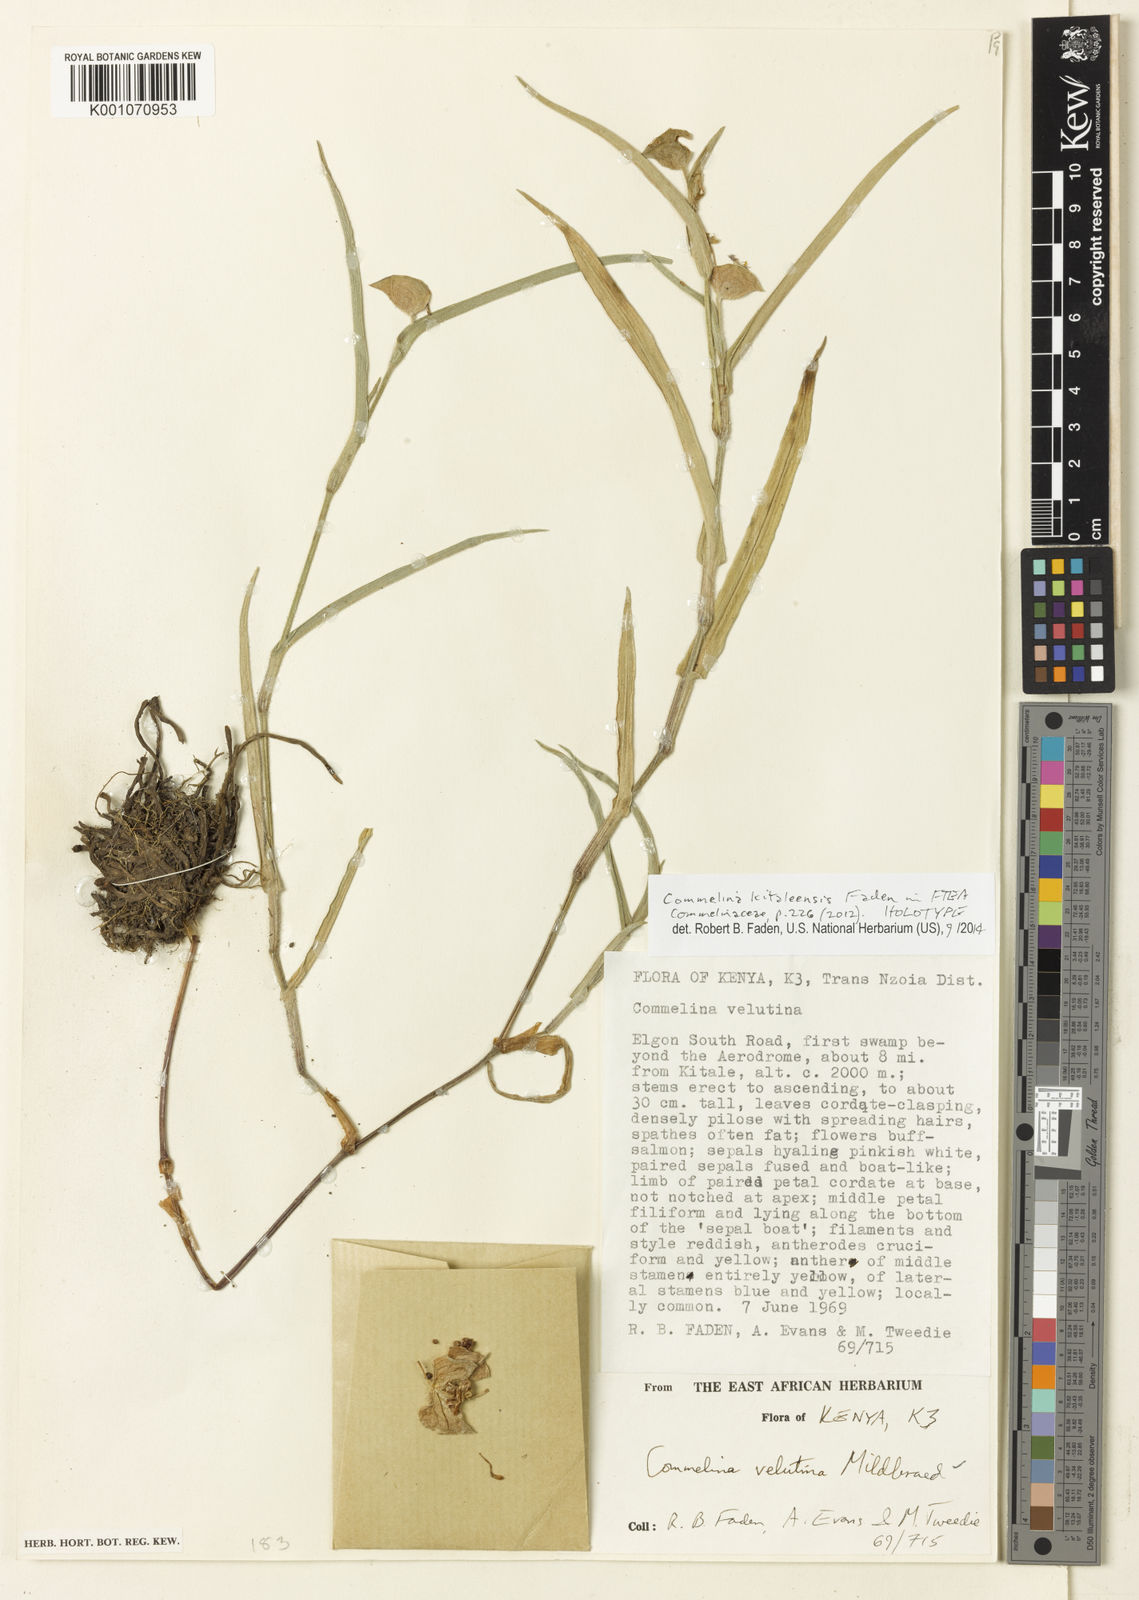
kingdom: Plantae
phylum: Tracheophyta
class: Liliopsida
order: Commelinales
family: Commelinaceae
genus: Commelina
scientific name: Commelina kitaleensis
